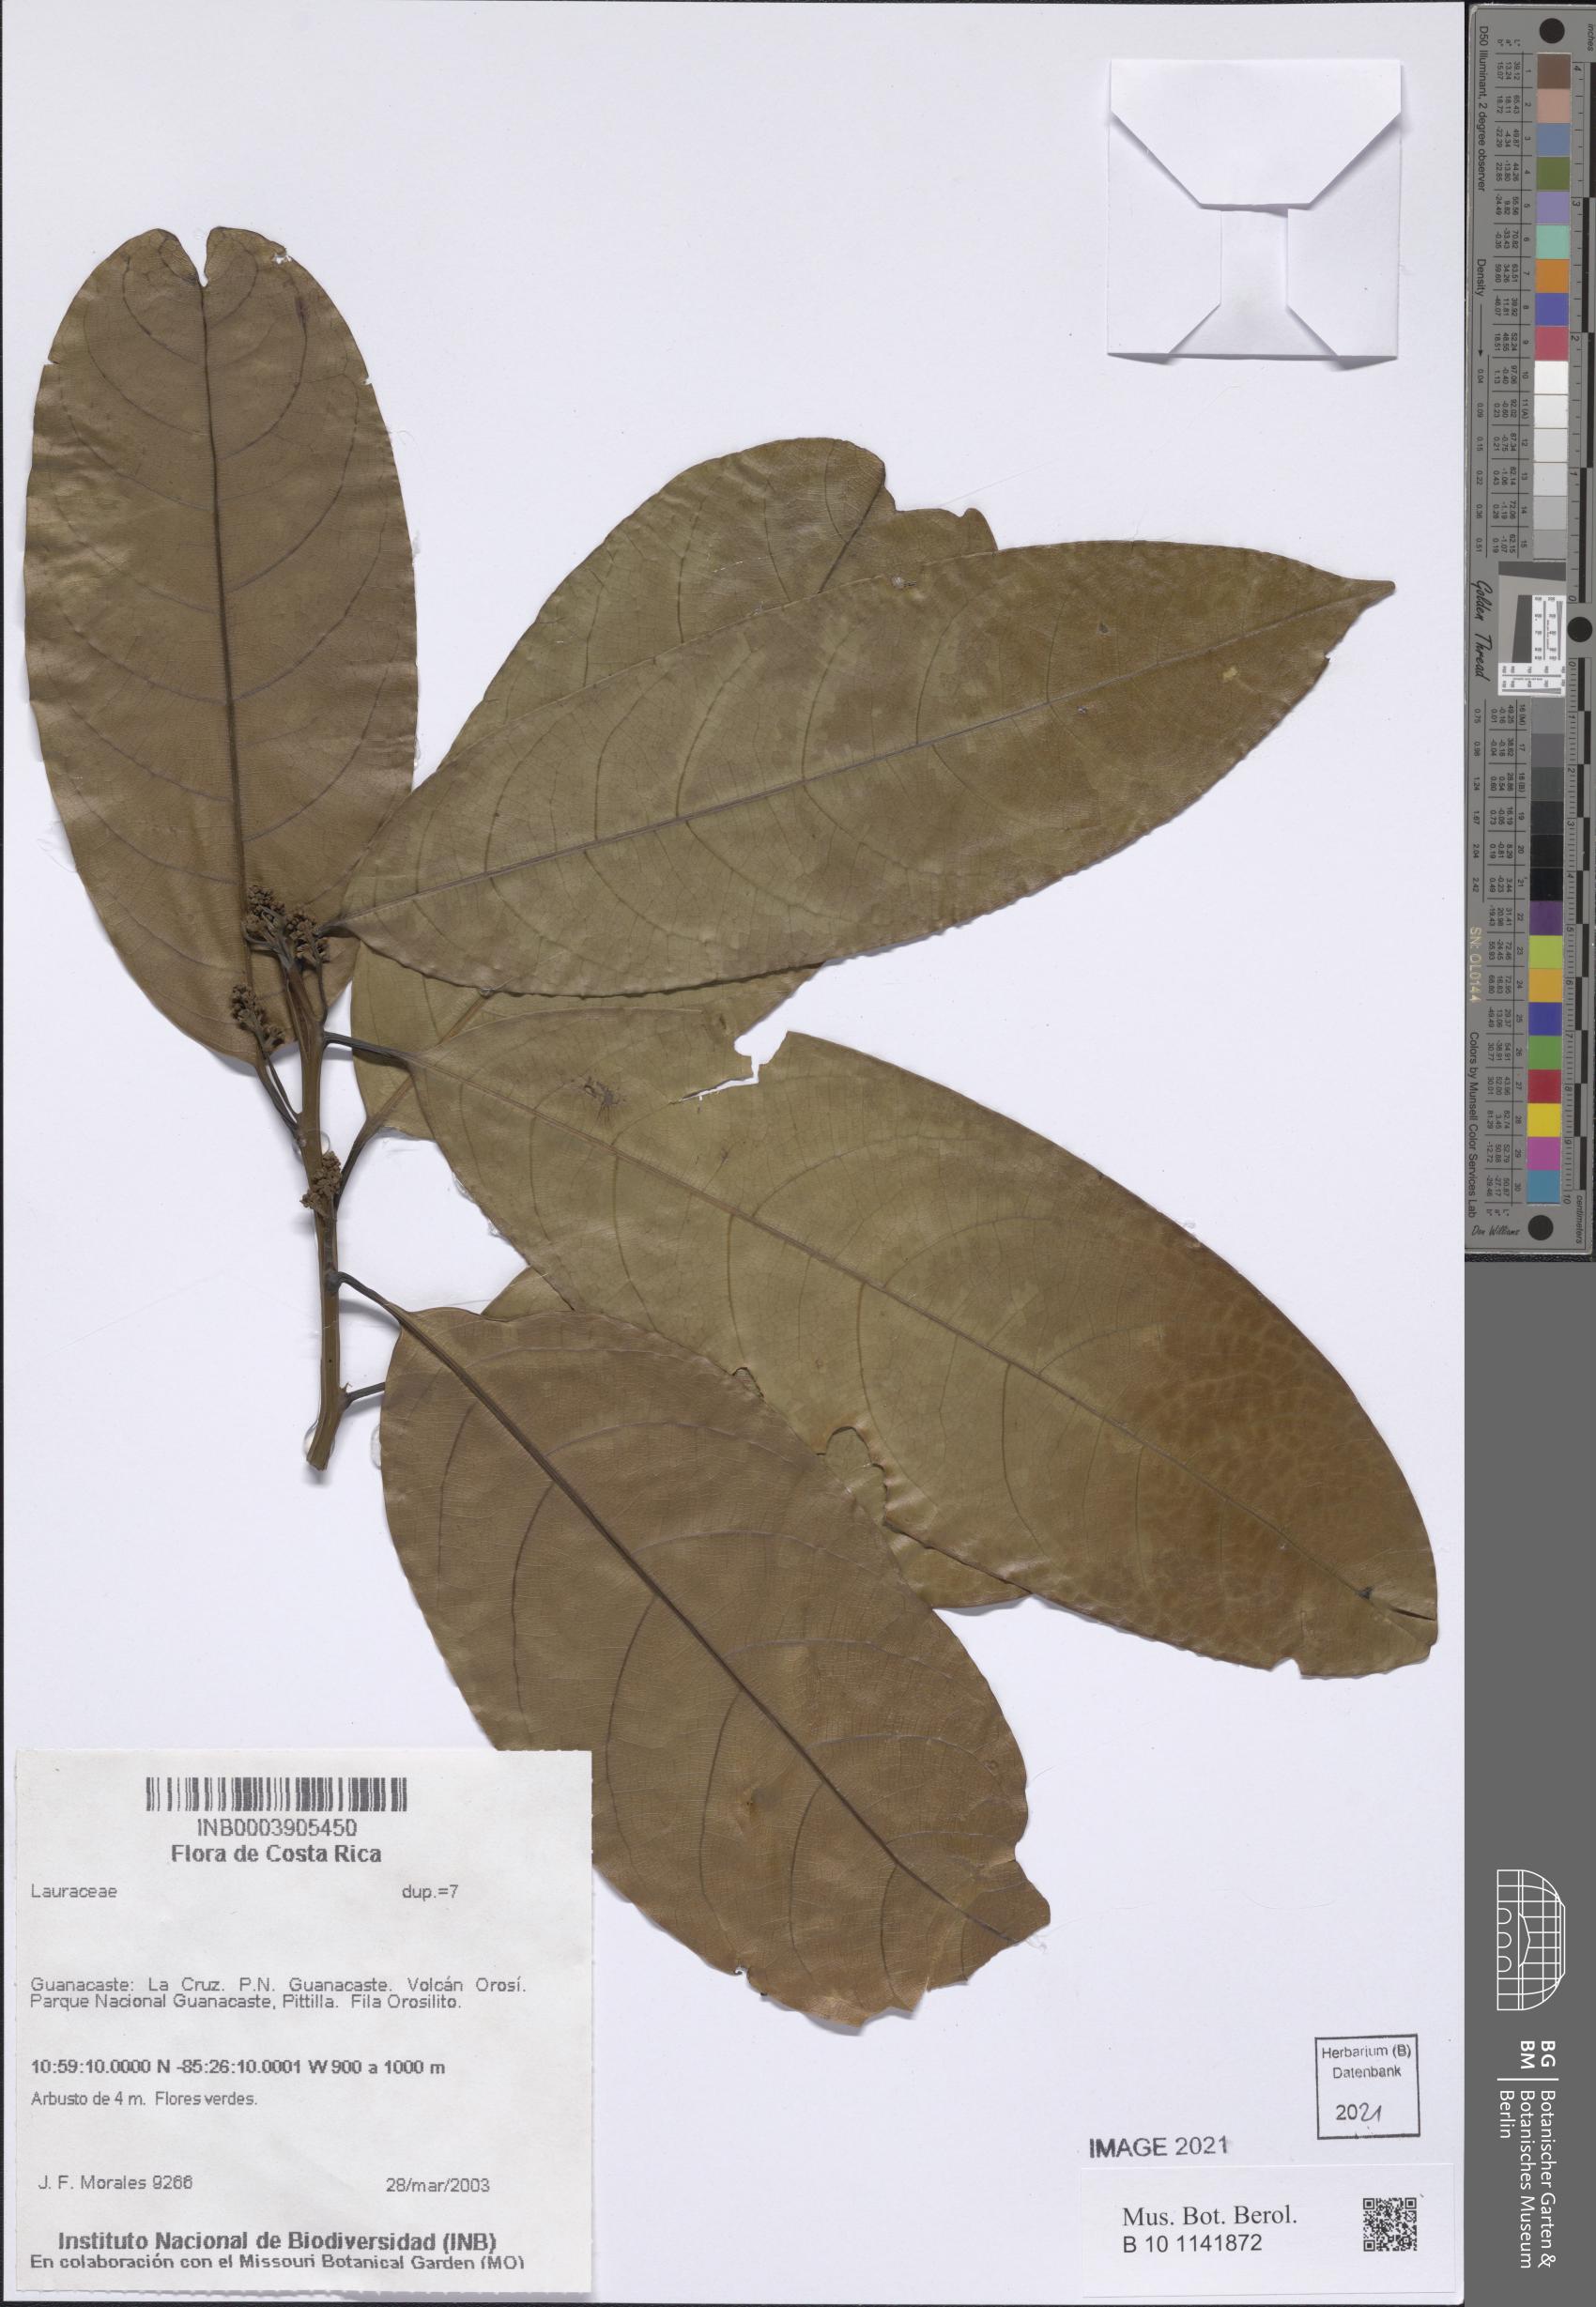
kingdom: Plantae
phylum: Tracheophyta
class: Magnoliopsida
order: Laurales
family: Lauraceae
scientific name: Lauraceae
